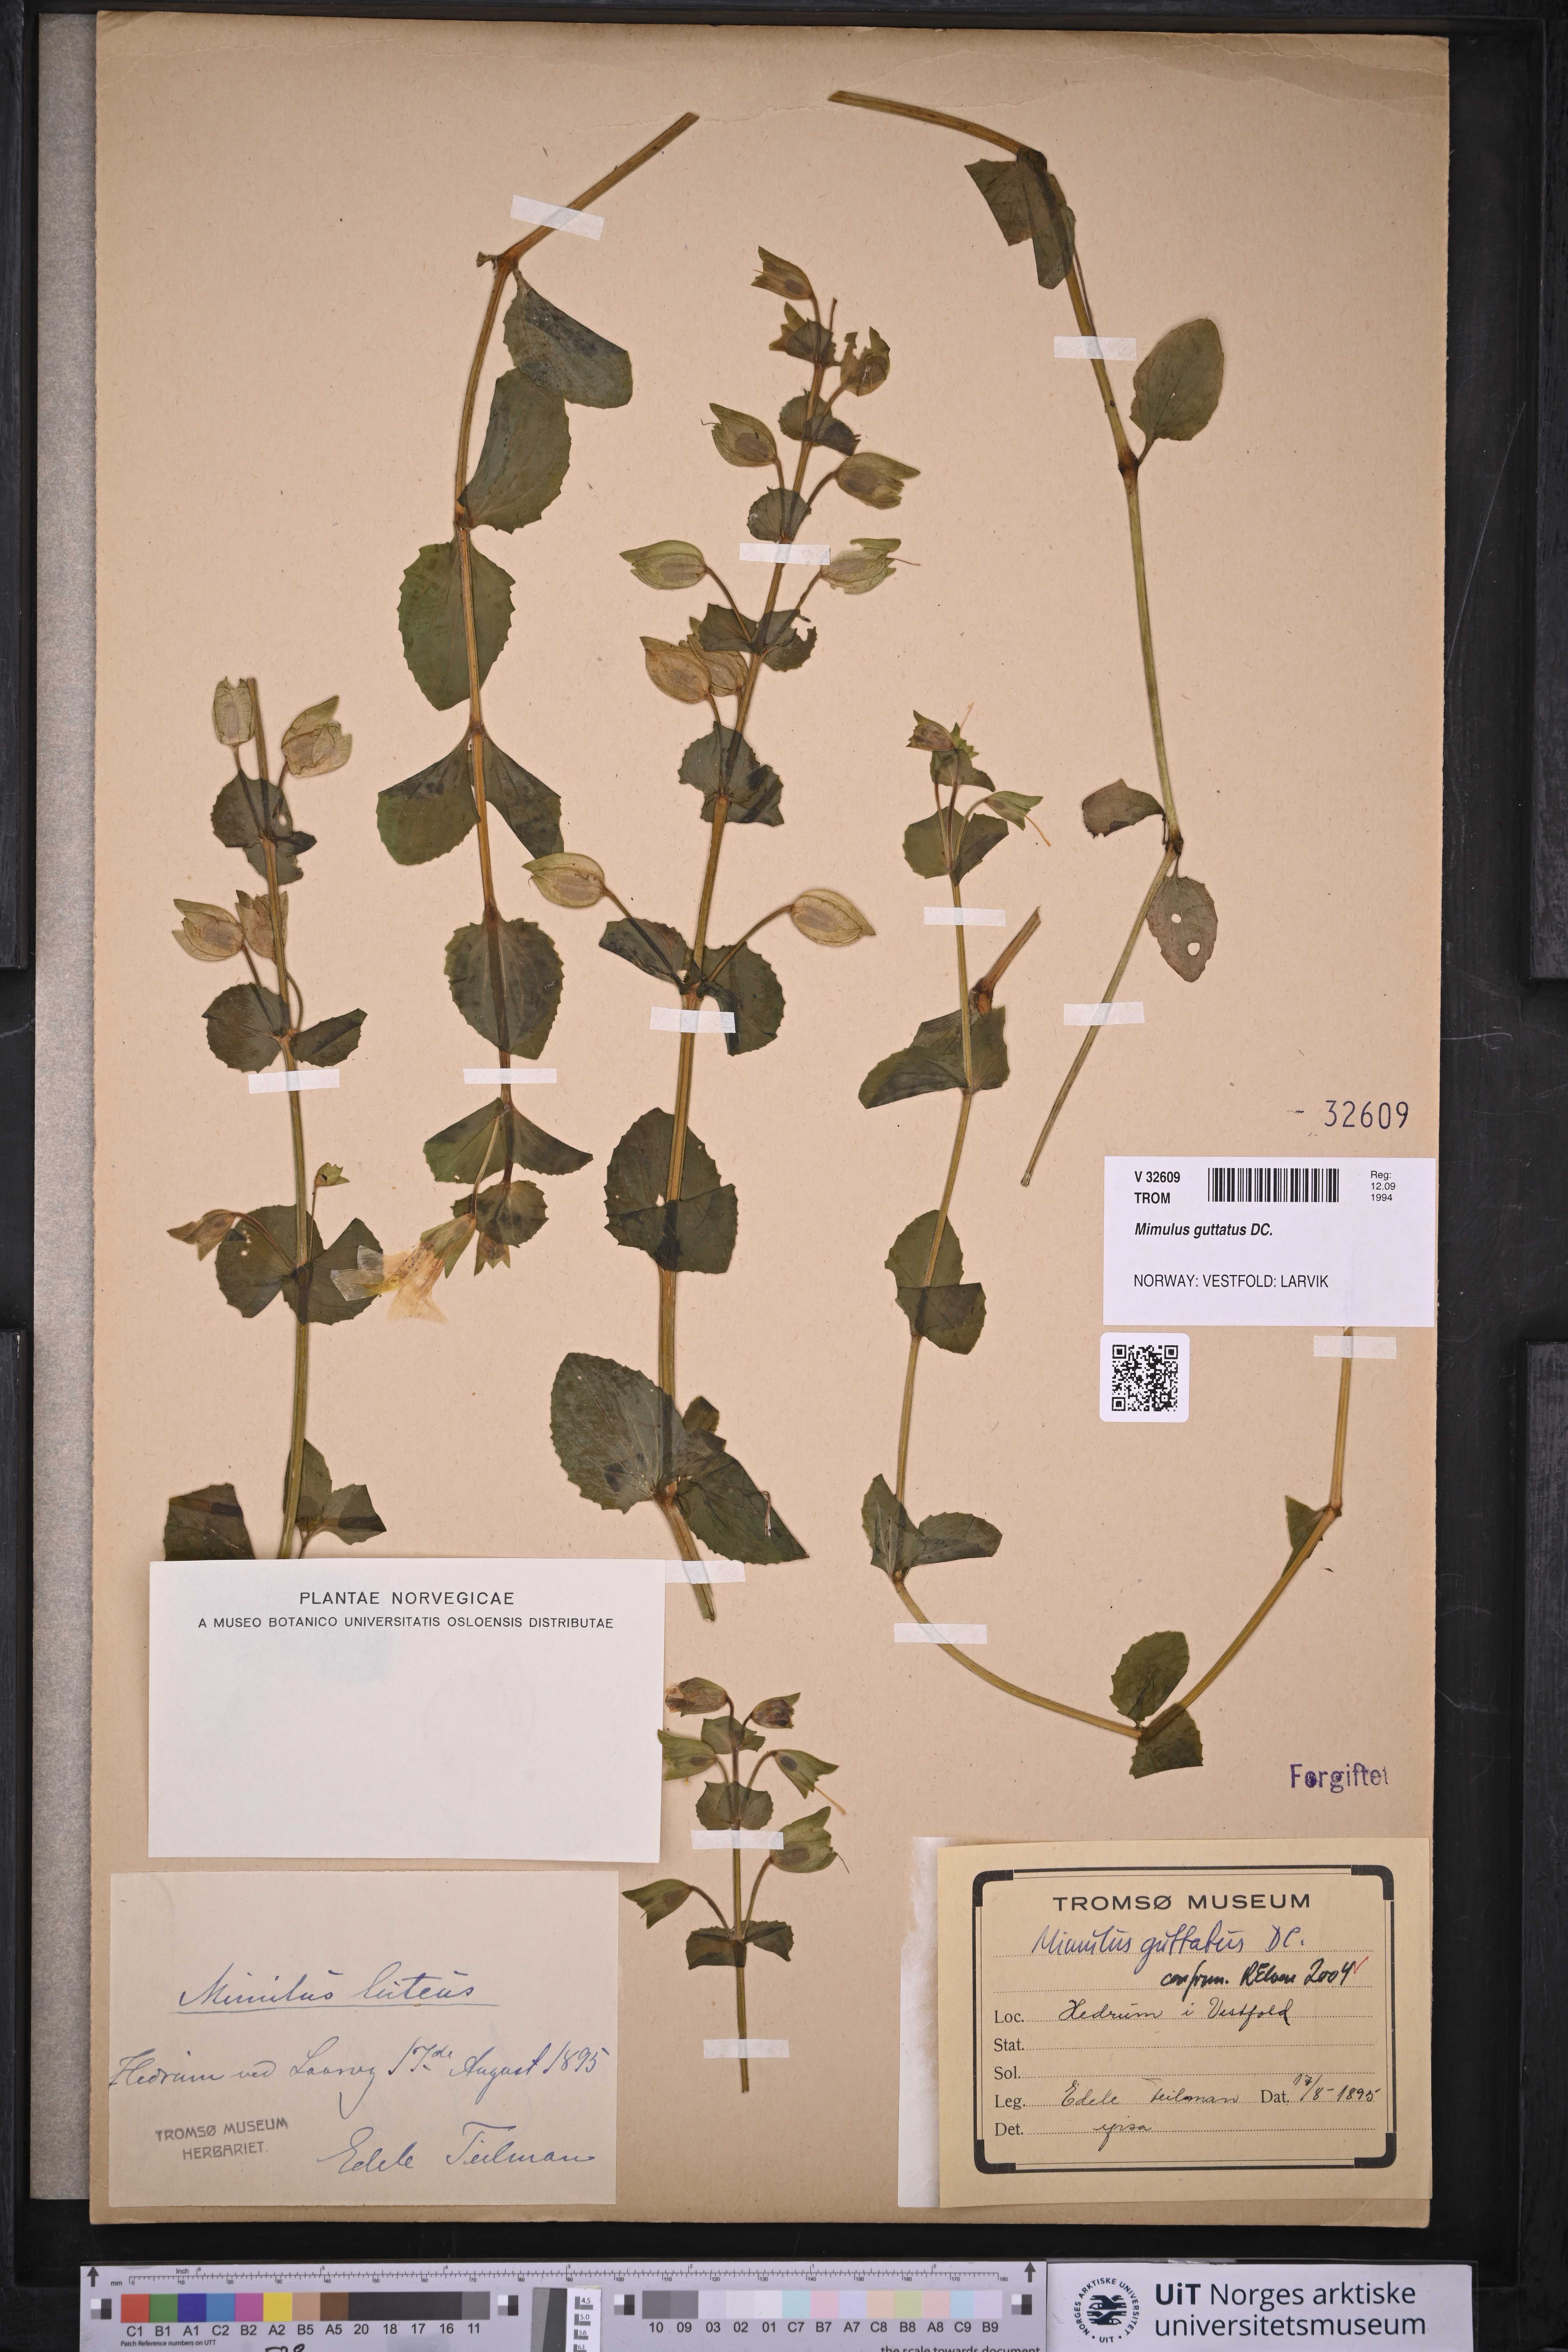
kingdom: Plantae
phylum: Tracheophyta
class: Magnoliopsida
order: Lamiales
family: Phrymaceae
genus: Erythranthe
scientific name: Erythranthe guttata
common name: Monkeyflower
